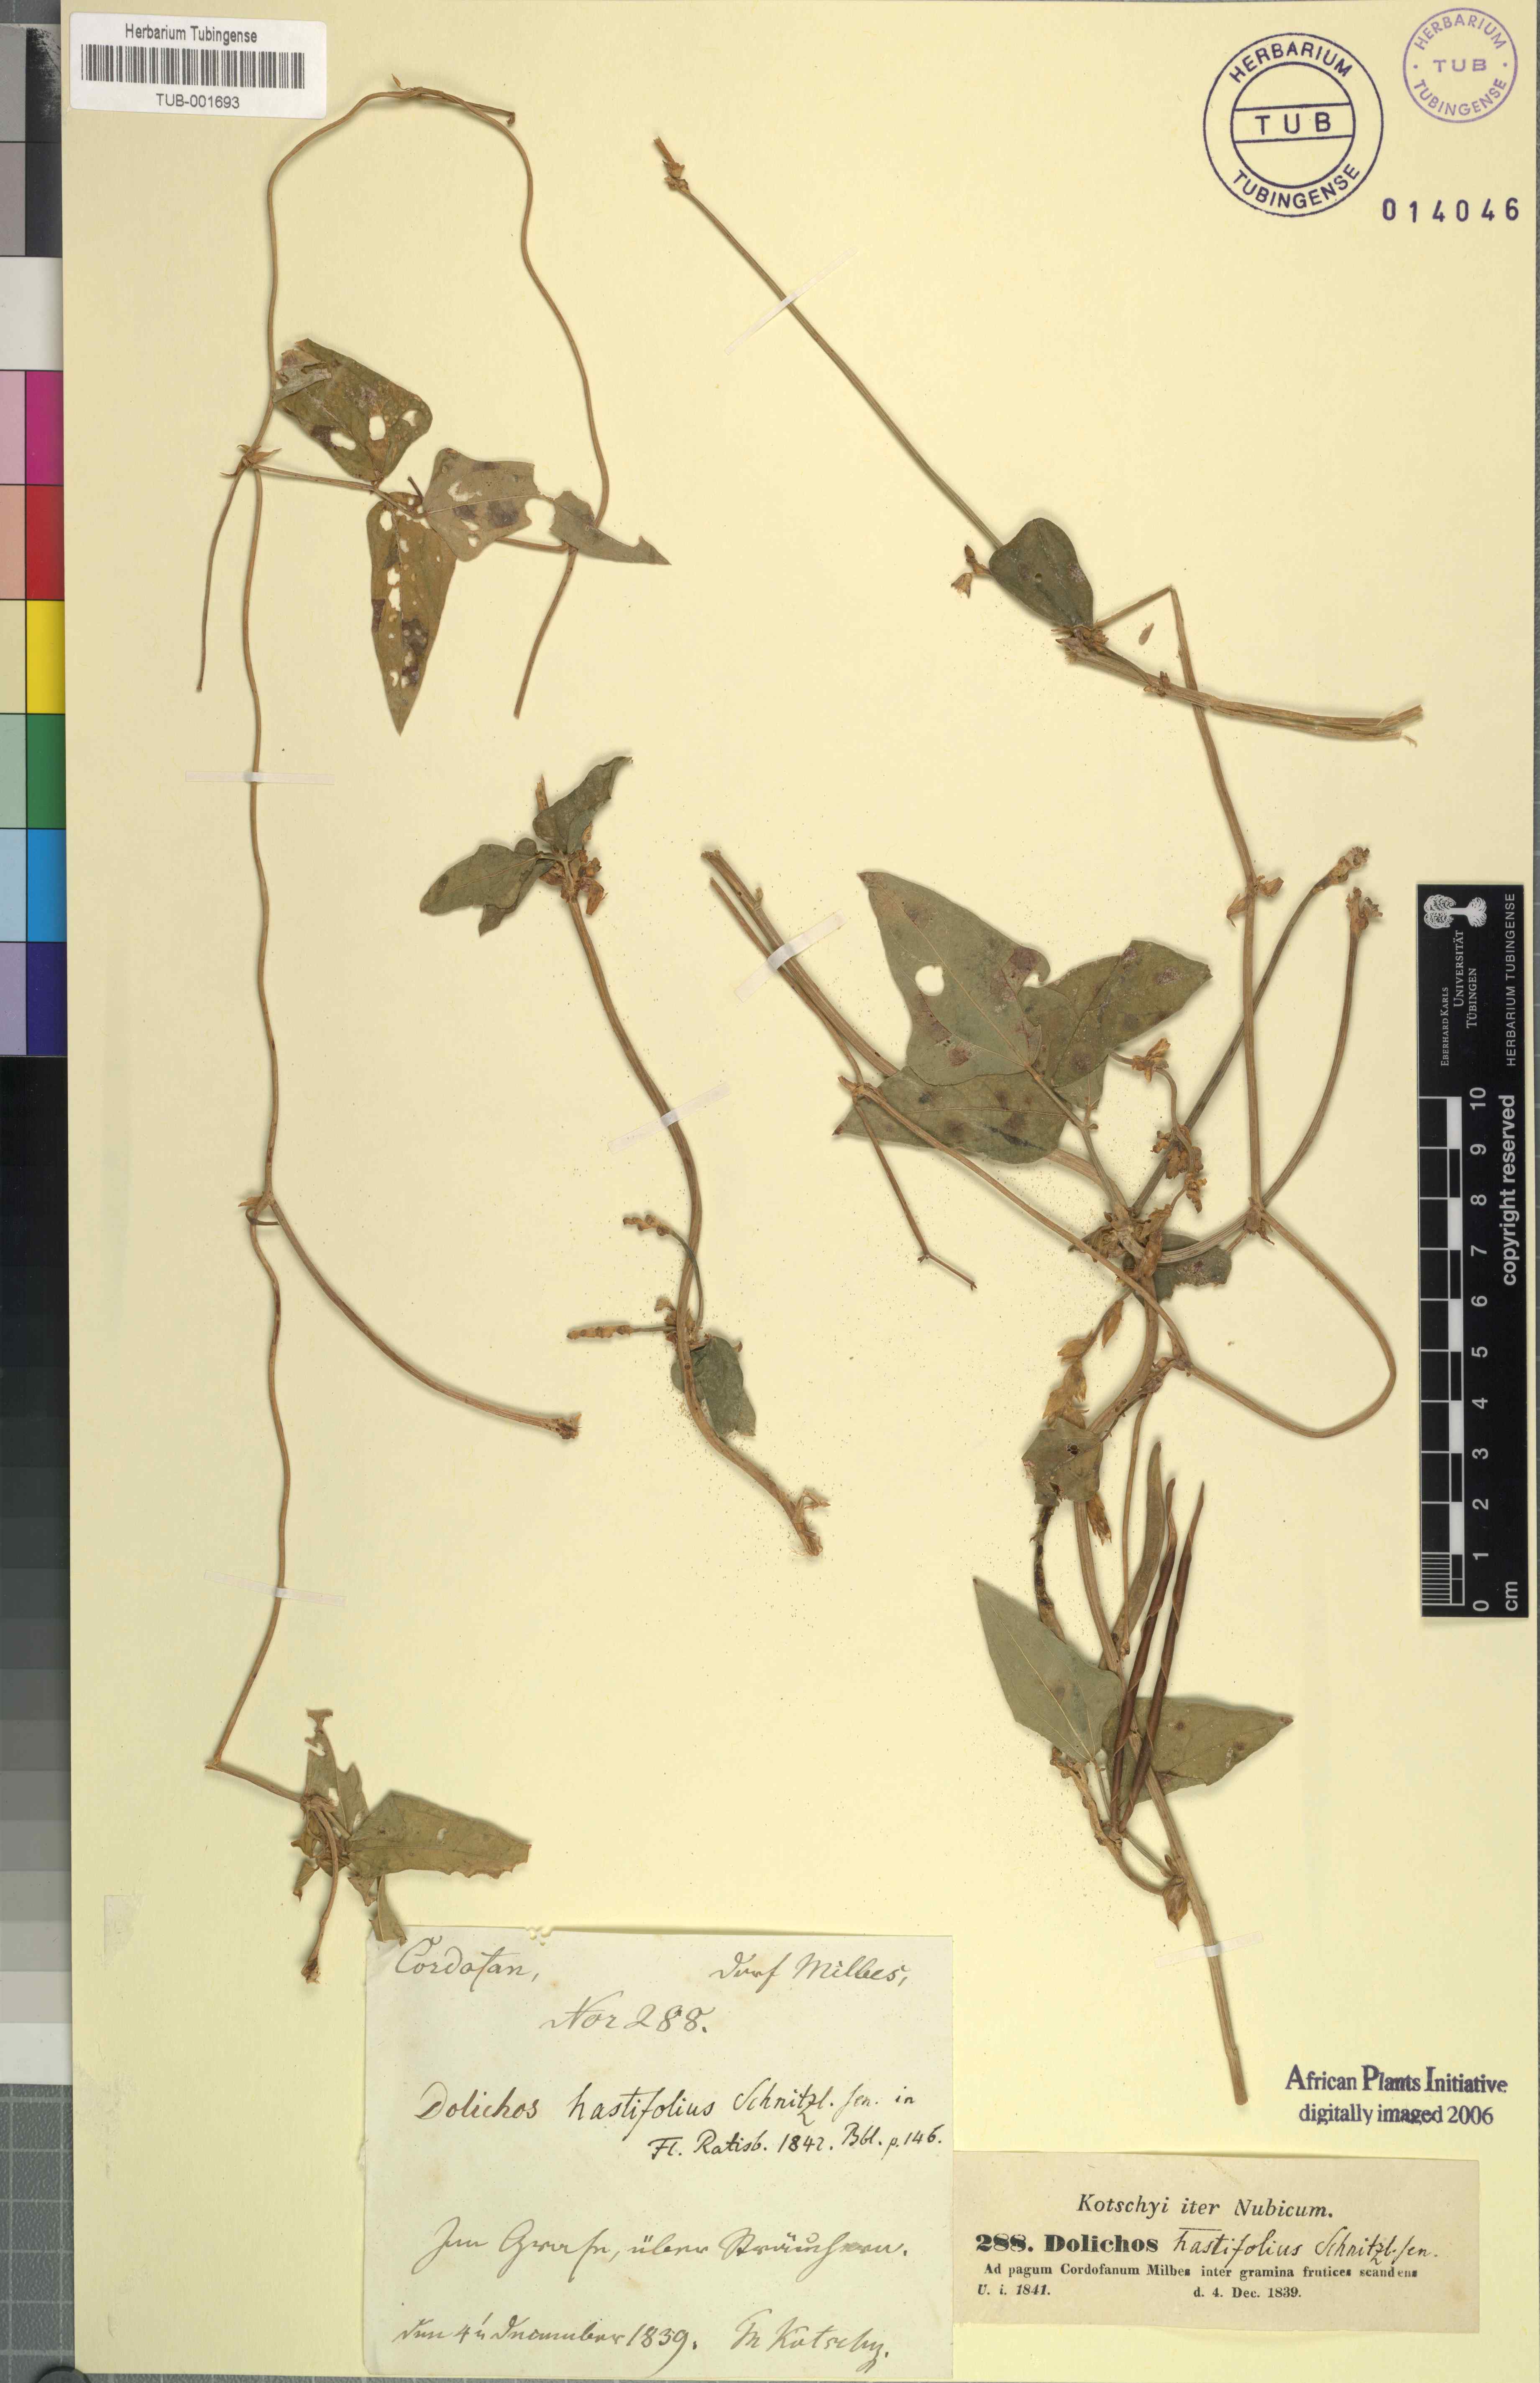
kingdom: Plantae
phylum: Tracheophyta
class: Magnoliopsida
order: Fabales
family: Fabaceae
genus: Vigna
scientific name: Vigna unguiculata
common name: Cowpea
